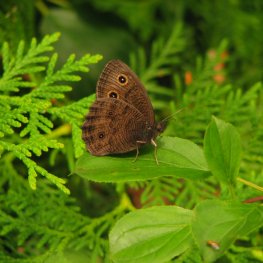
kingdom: Animalia
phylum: Arthropoda
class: Insecta
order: Lepidoptera
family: Nymphalidae
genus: Cercyonis
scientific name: Cercyonis pegala
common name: Common Wood-Nymph
